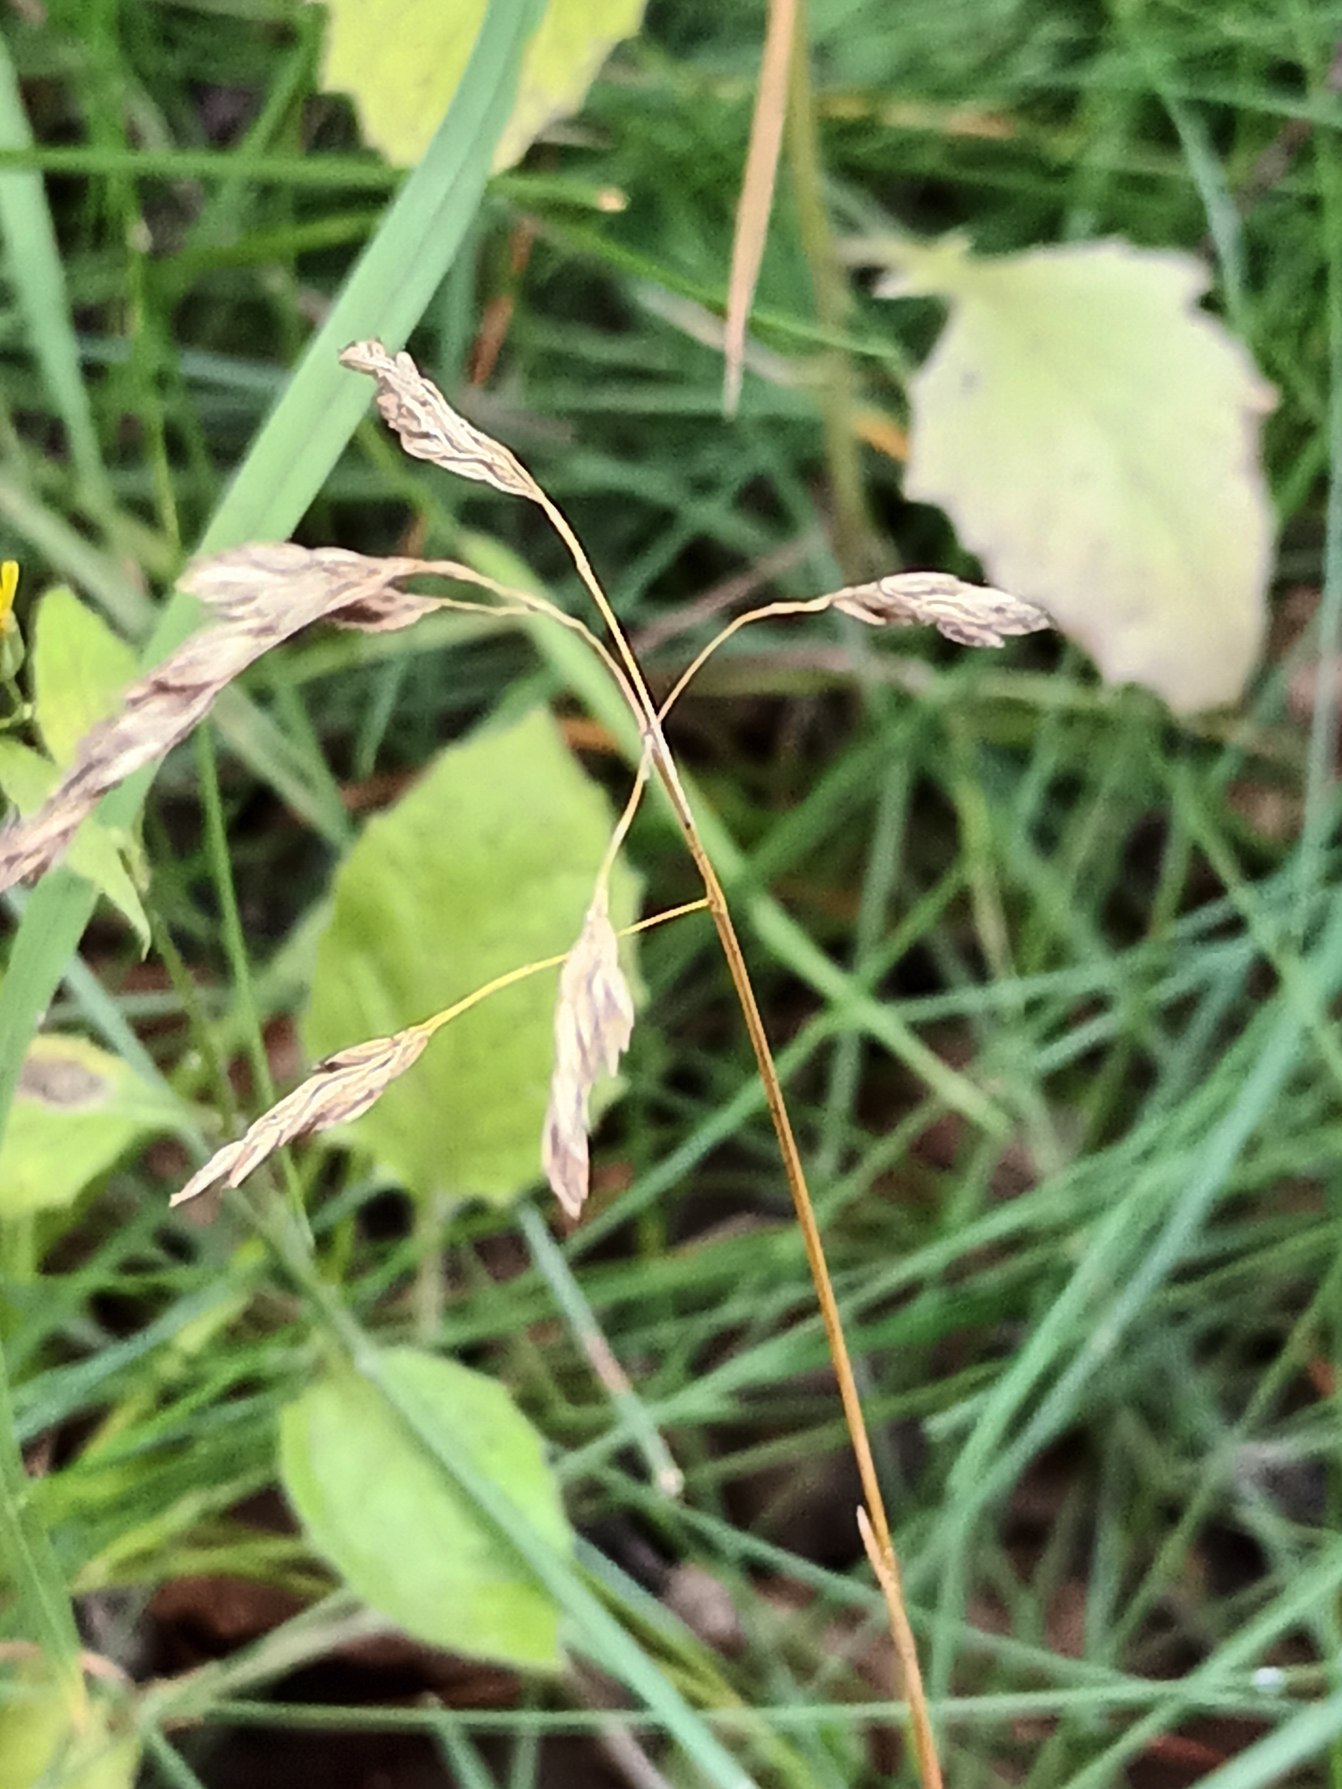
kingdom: Plantae
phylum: Tracheophyta
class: Liliopsida
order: Poales
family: Poaceae
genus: Poa
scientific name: Poa pratensis
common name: Eng-rapgræs
